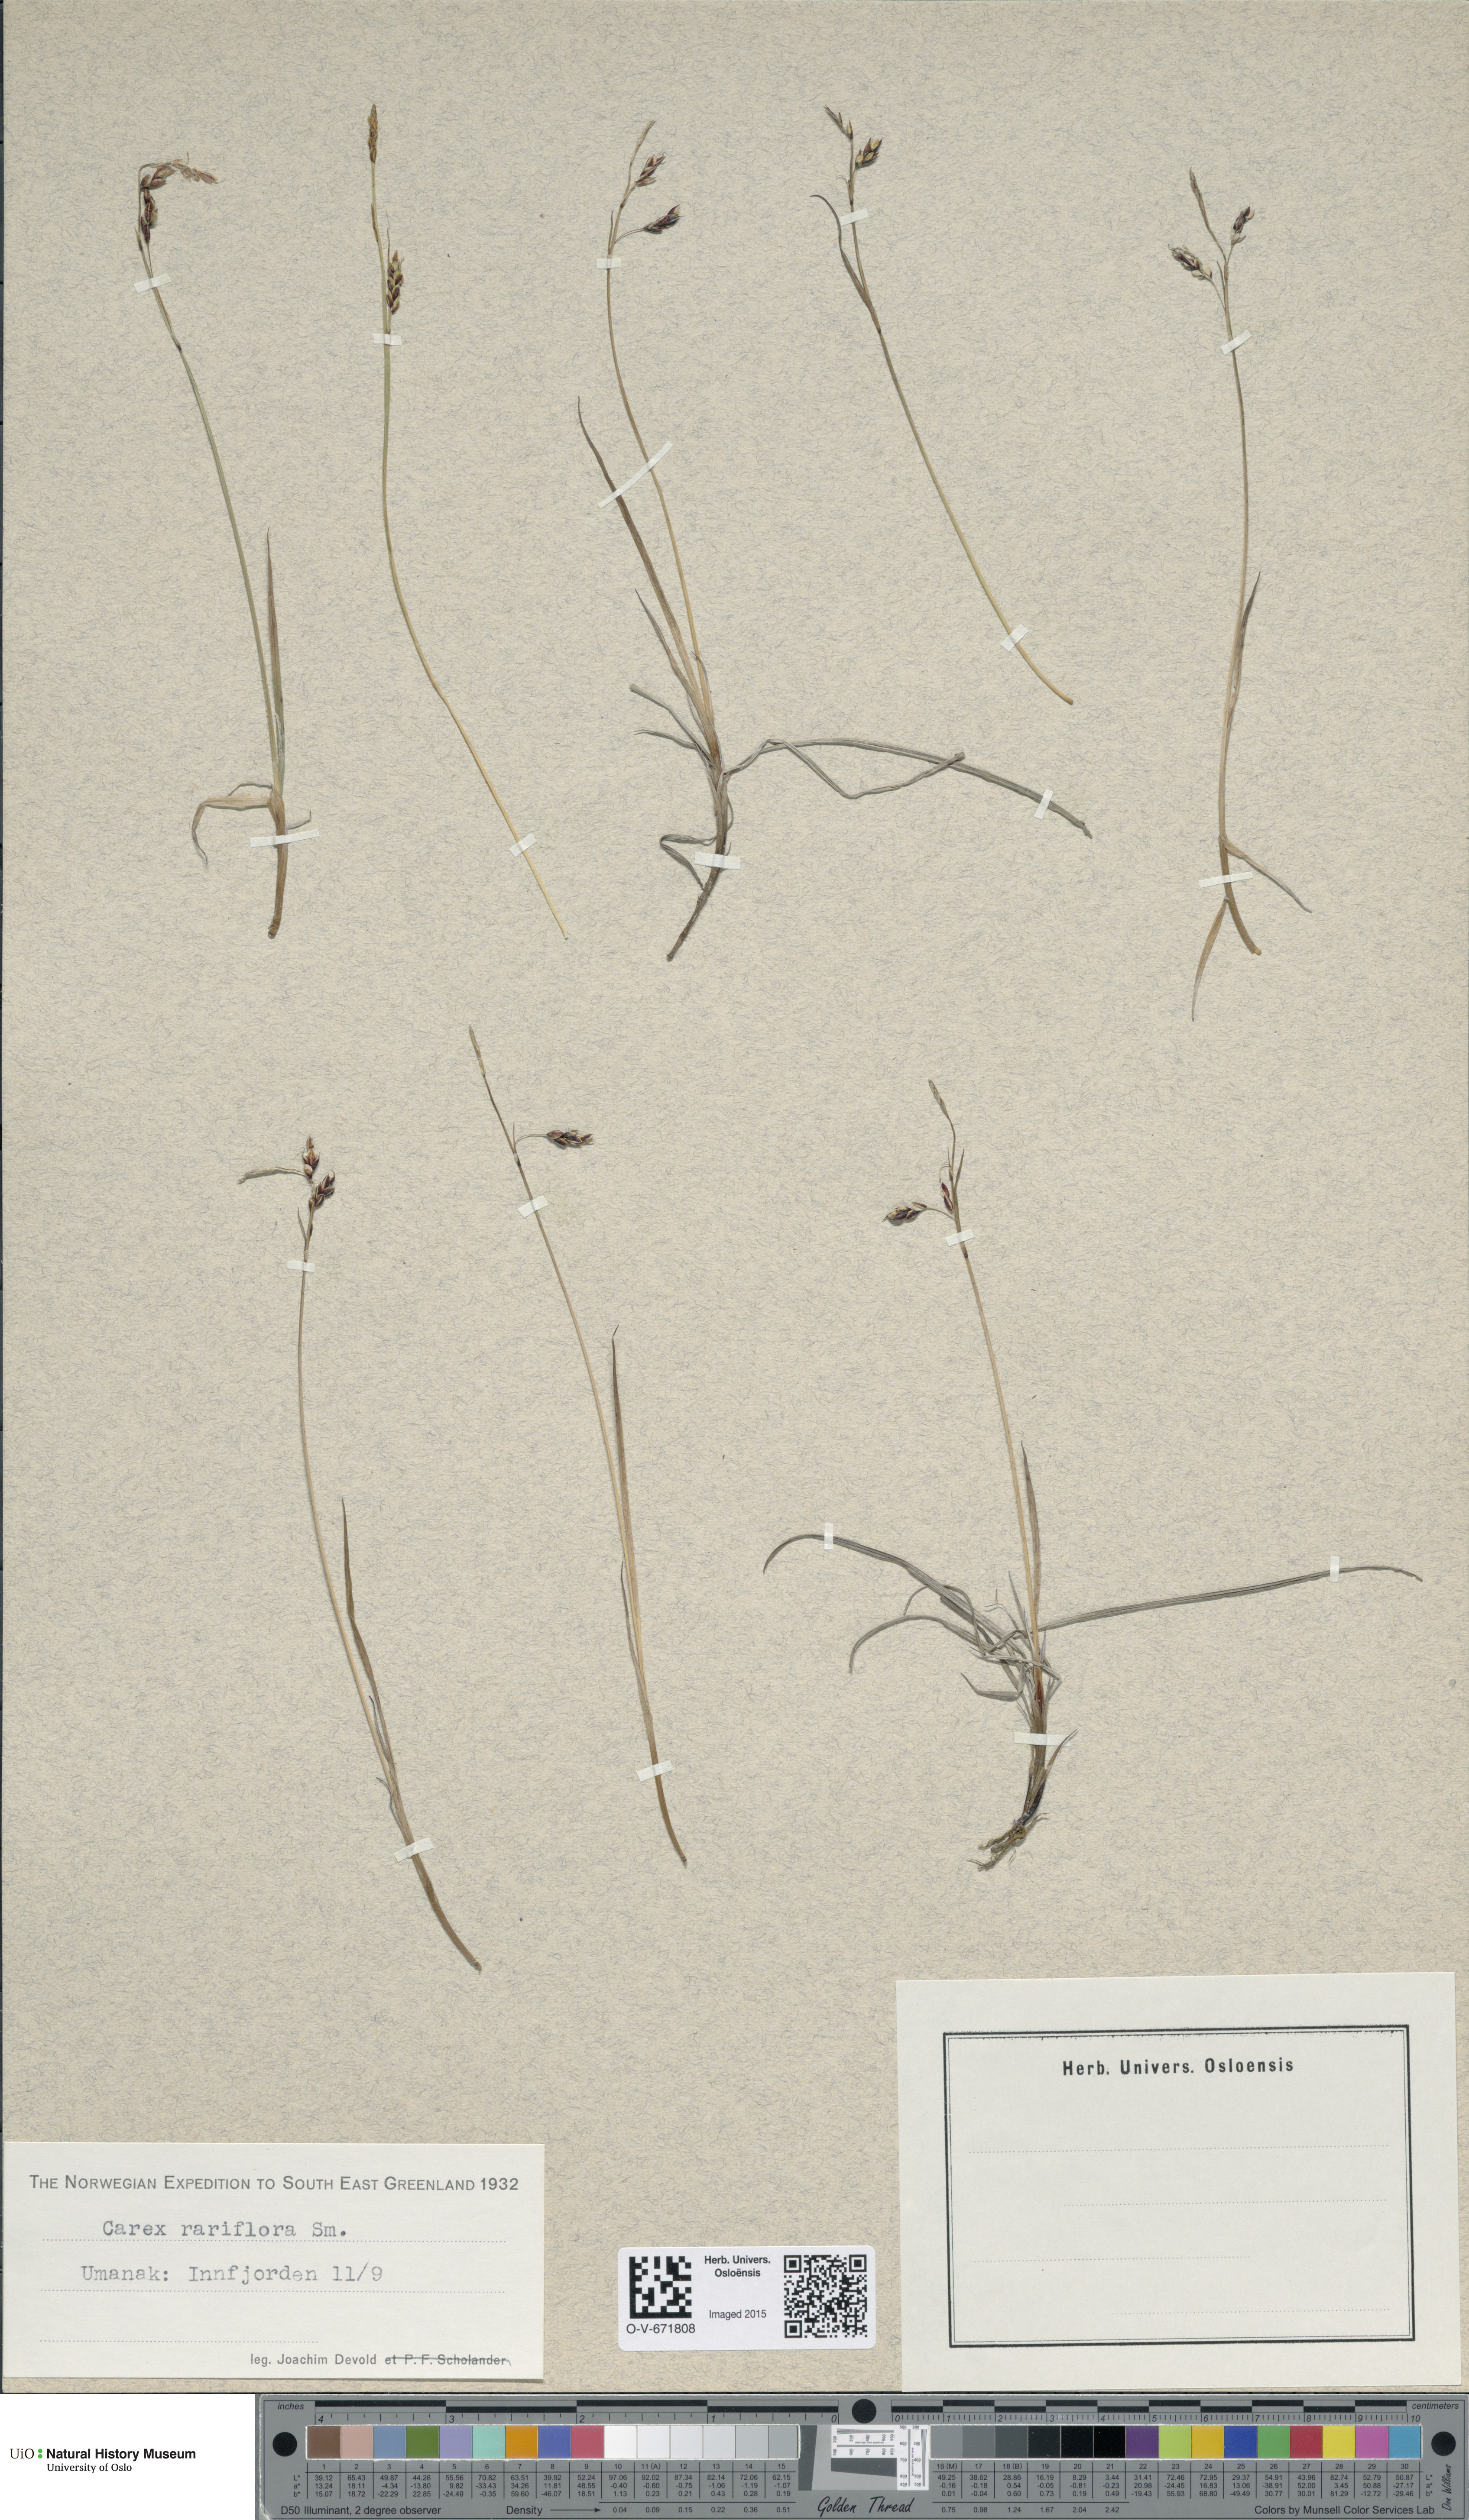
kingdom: Plantae
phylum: Tracheophyta
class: Liliopsida
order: Poales
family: Cyperaceae
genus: Carex
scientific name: Carex rariflora
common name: Loose-flowered alpine sedge
